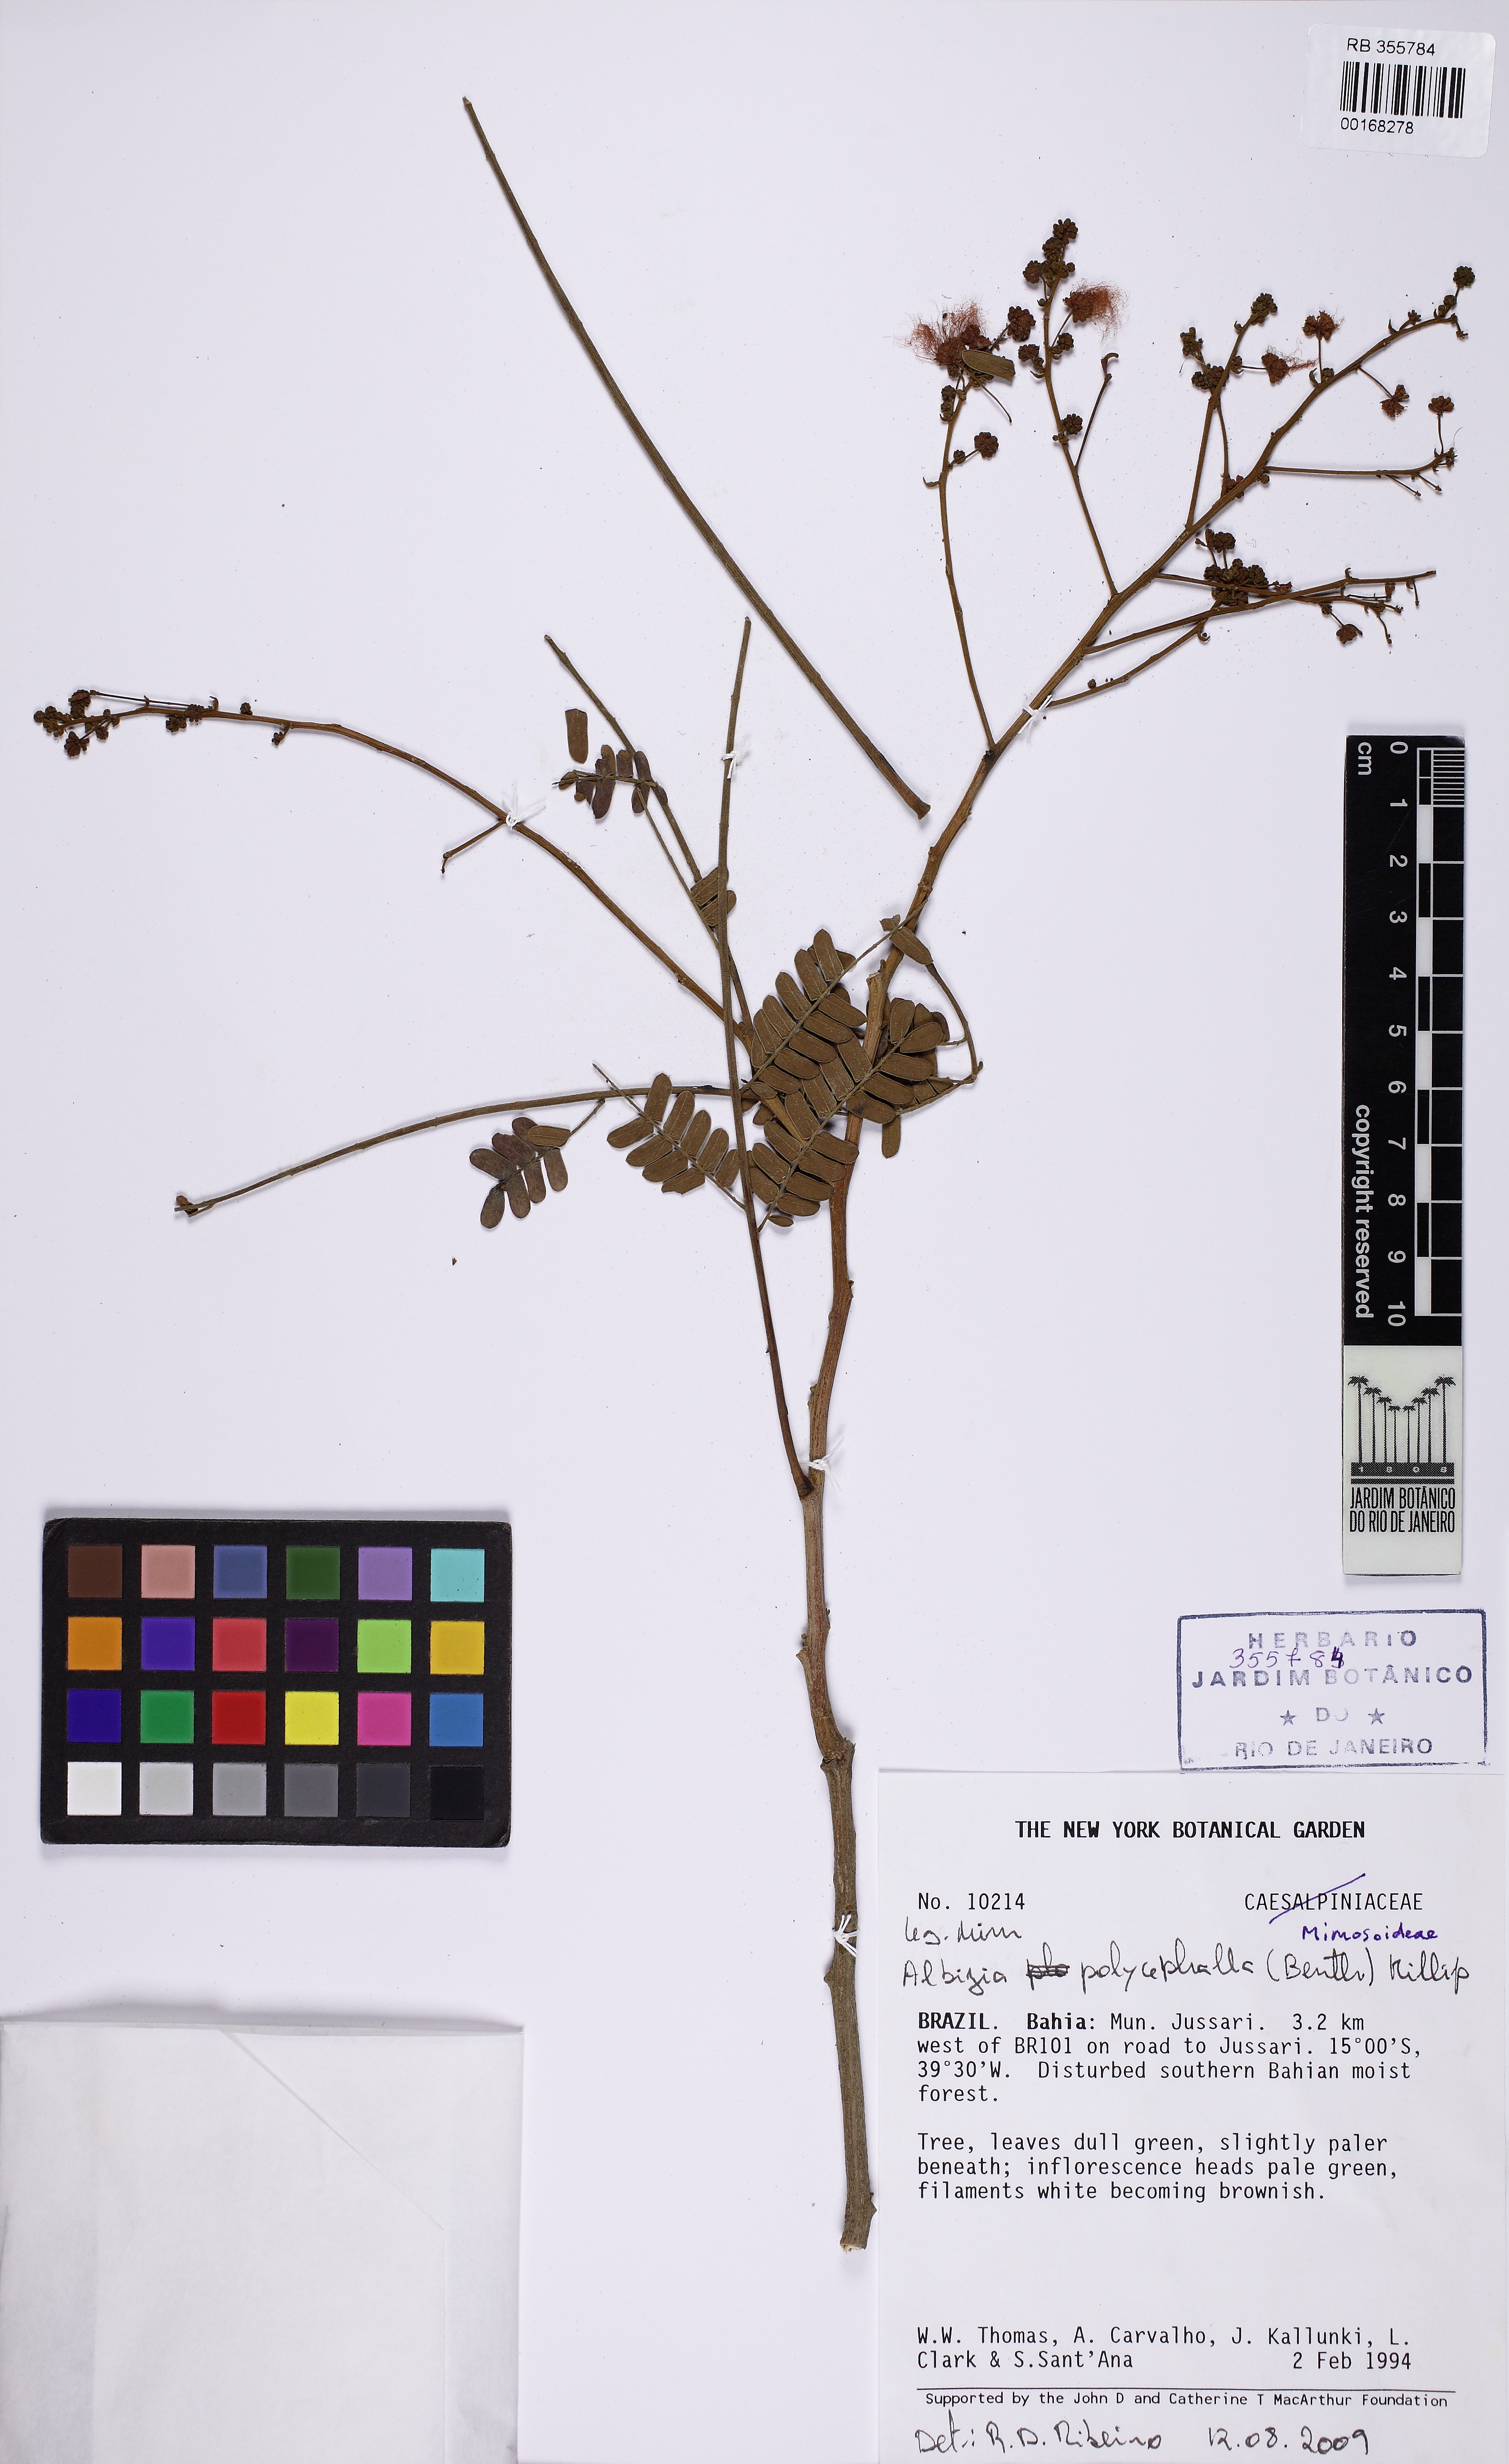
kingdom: Plantae
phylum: Tracheophyta
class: Magnoliopsida
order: Fabales
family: Fabaceae
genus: Albizia
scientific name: Albizia
